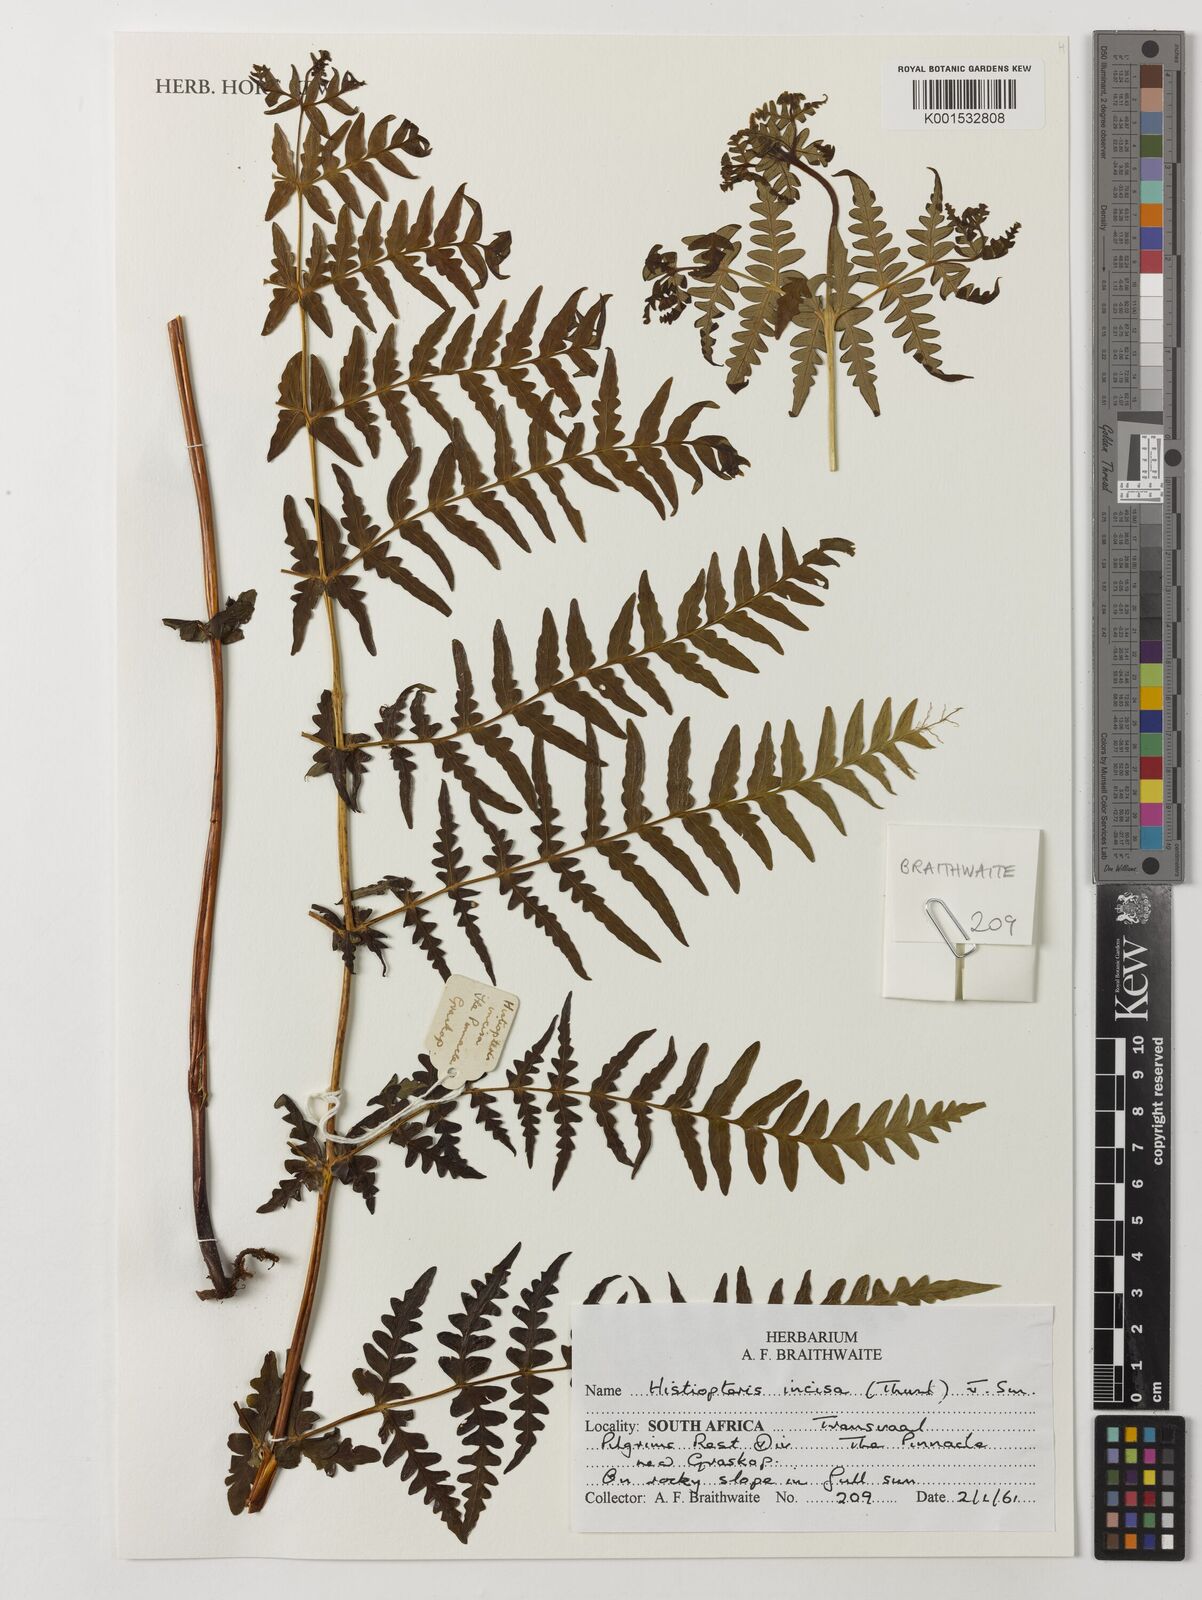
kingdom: Plantae
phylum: Tracheophyta
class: Polypodiopsida
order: Polypodiales
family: Dennstaedtiaceae
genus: Histiopteris
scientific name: Histiopteris incisa
